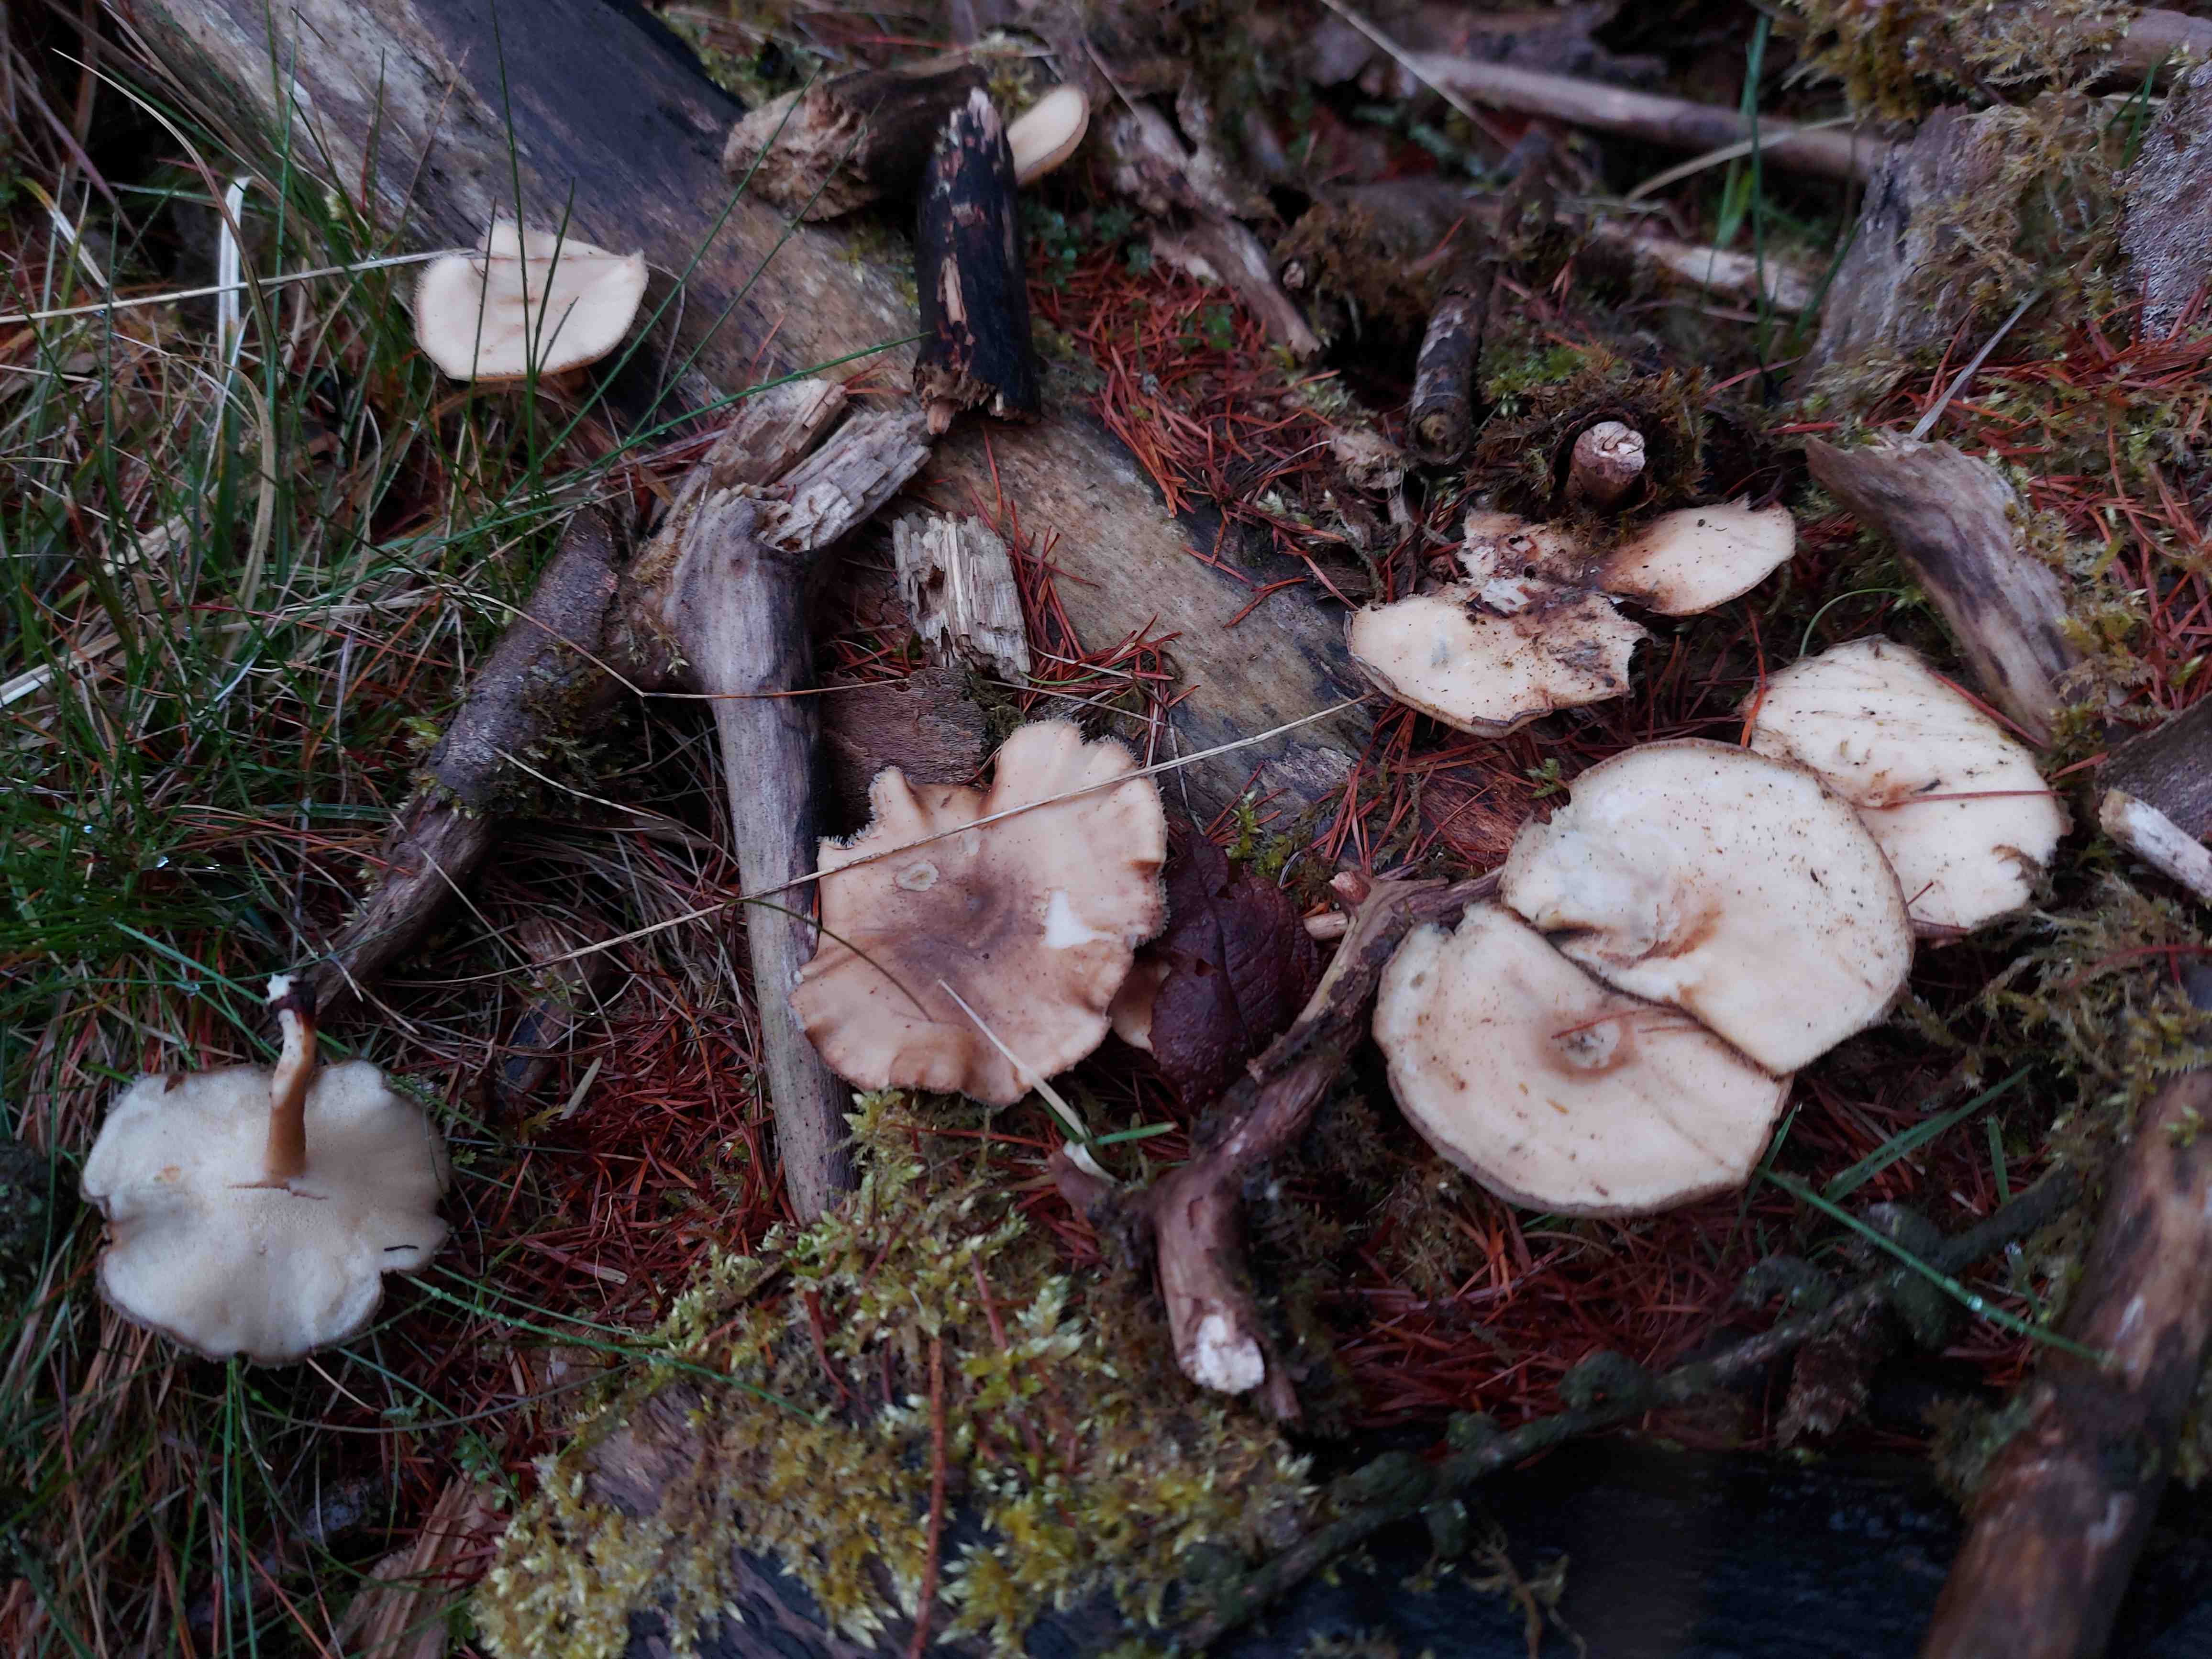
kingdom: Fungi
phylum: Basidiomycota
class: Agaricomycetes
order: Polyporales
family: Polyporaceae
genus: Lentinus
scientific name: Lentinus brumalis
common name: vinter-stilkporesvamp
